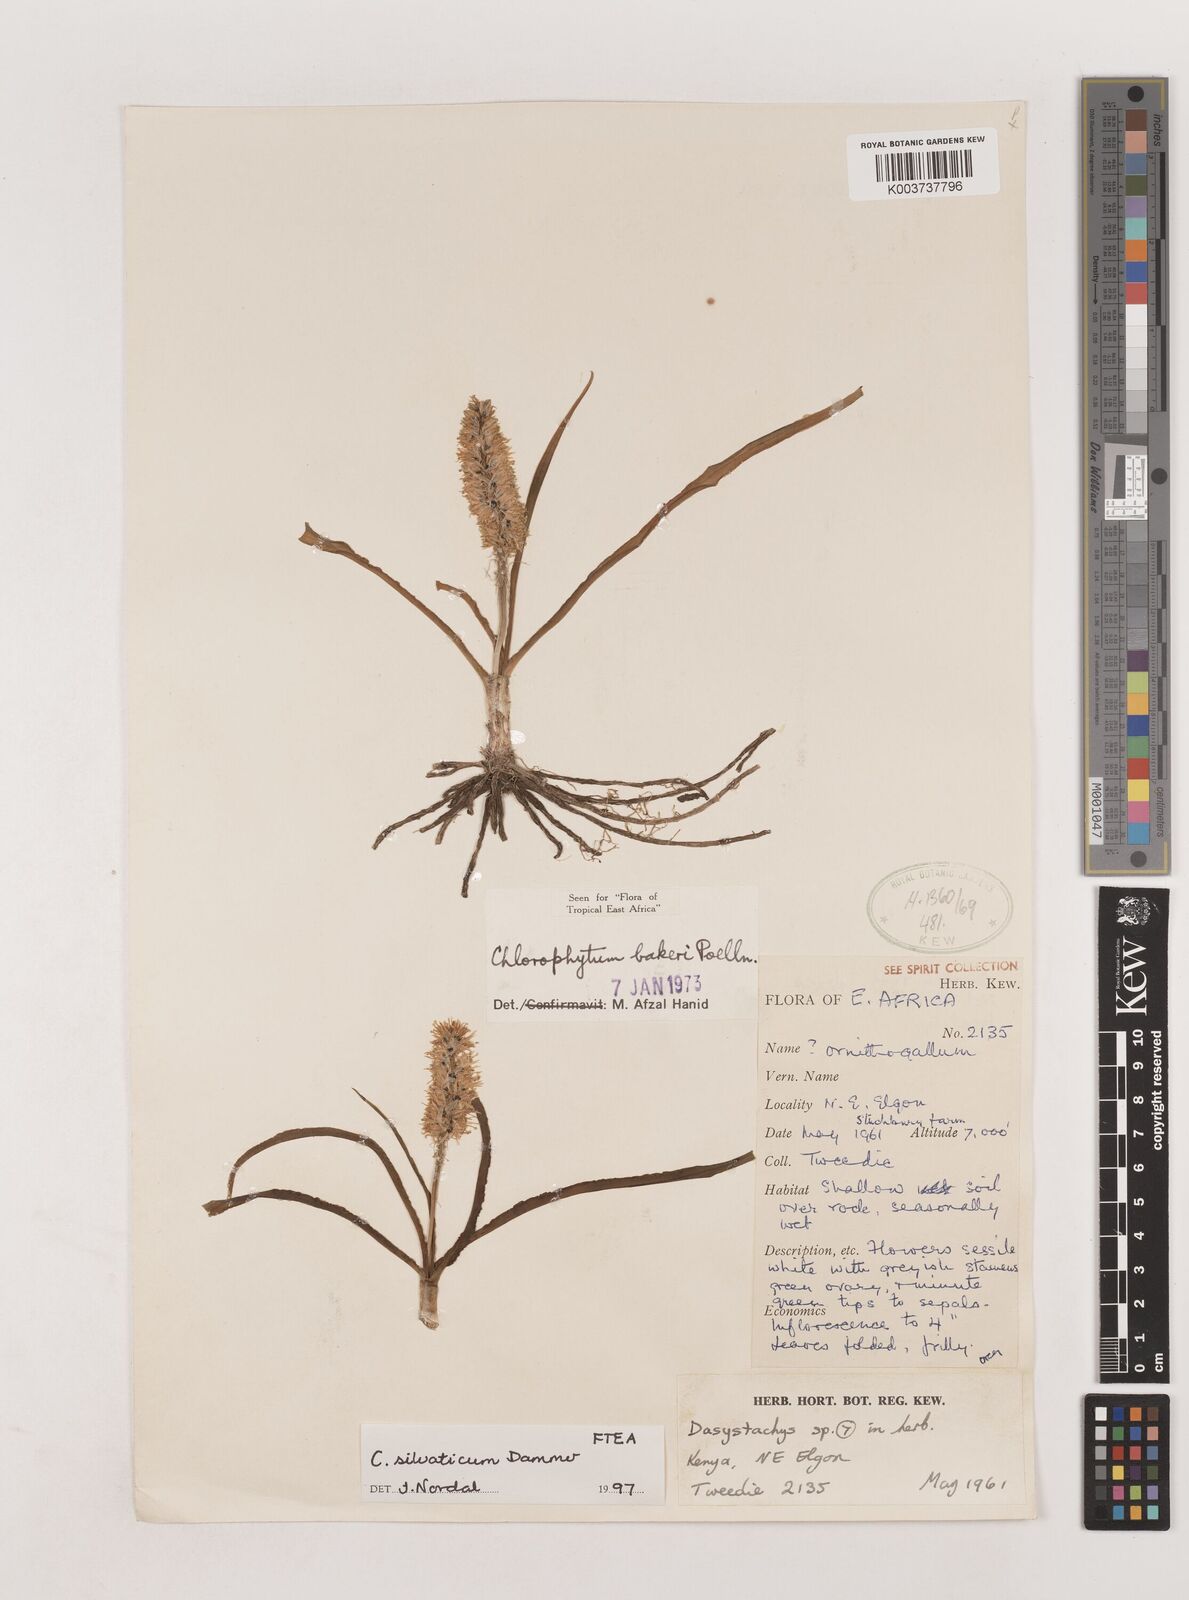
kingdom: Plantae
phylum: Tracheophyta
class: Liliopsida
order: Asparagales
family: Asparagaceae
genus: Chlorophytum
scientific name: Chlorophytum africanum
